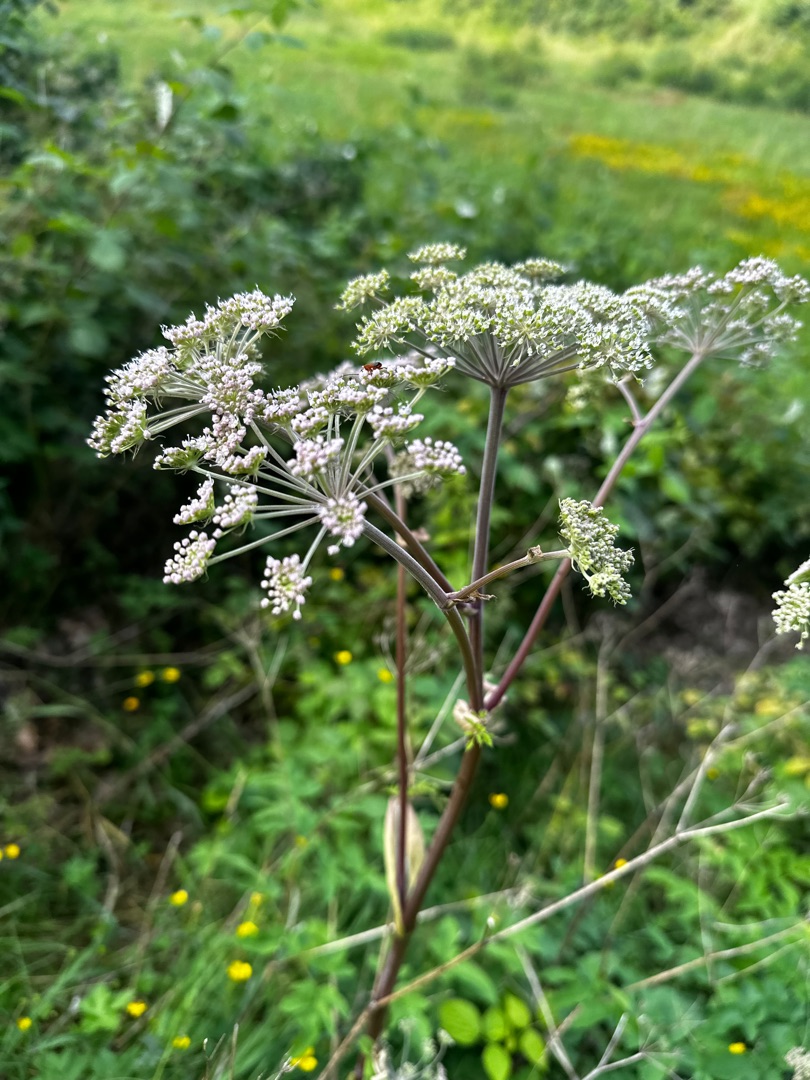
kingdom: Plantae
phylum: Tracheophyta
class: Magnoliopsida
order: Apiales
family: Apiaceae
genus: Angelica
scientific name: Angelica sylvestris
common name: Angelik
